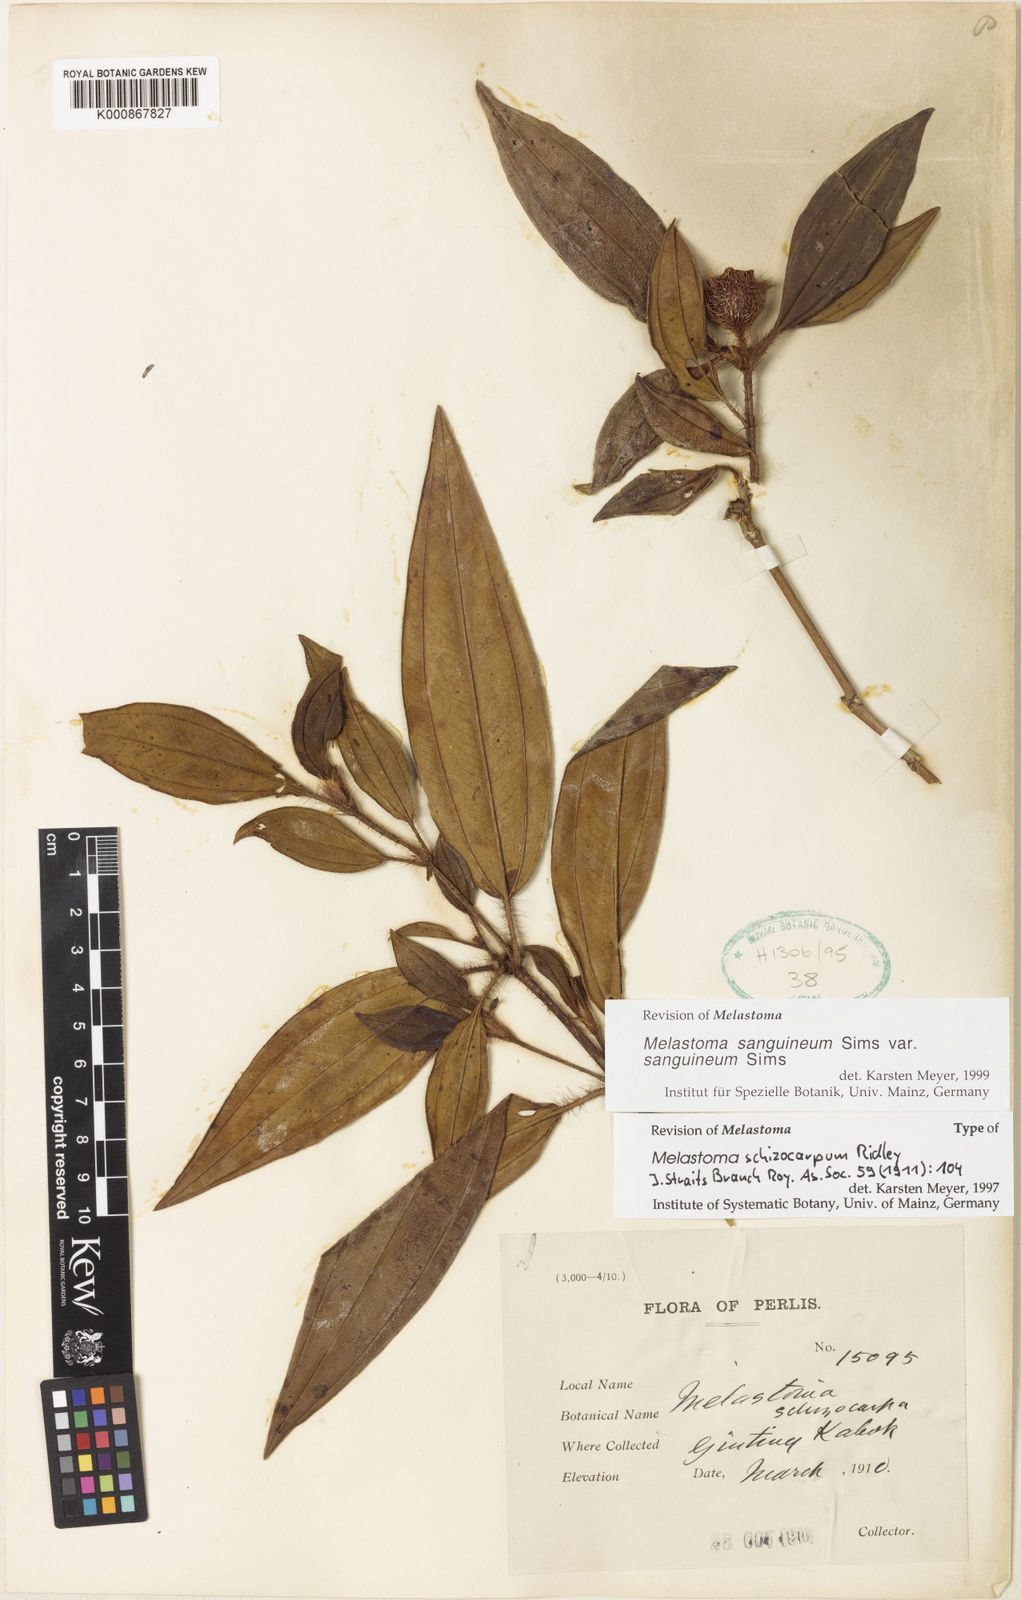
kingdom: Plantae
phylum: Tracheophyta
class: Magnoliopsida
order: Myrtales
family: Melastomataceae
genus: Melastoma
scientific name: Melastoma sanguineum
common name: Red melastome
